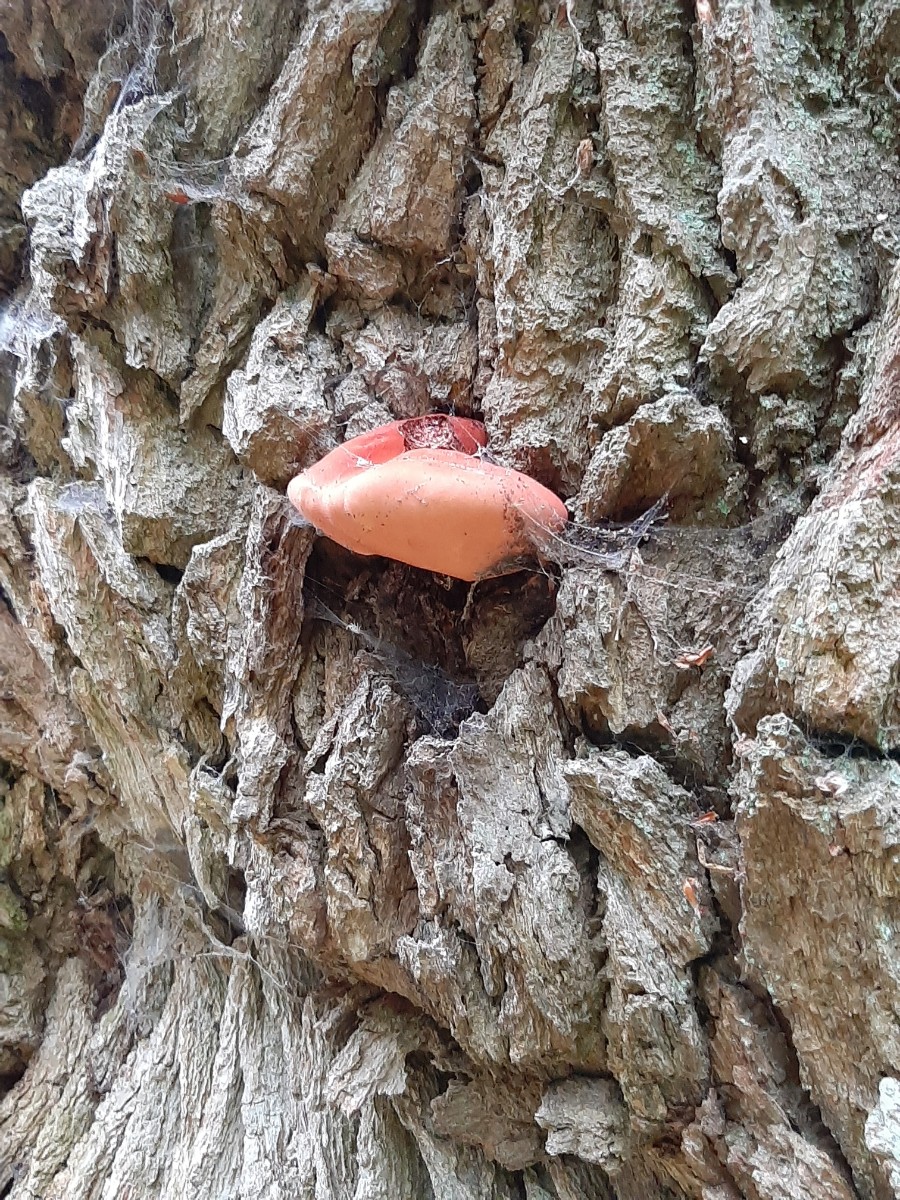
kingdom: Fungi
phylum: Basidiomycota
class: Agaricomycetes
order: Agaricales
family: Fistulinaceae
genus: Fistulina
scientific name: Fistulina hepatica
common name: oksetunge
